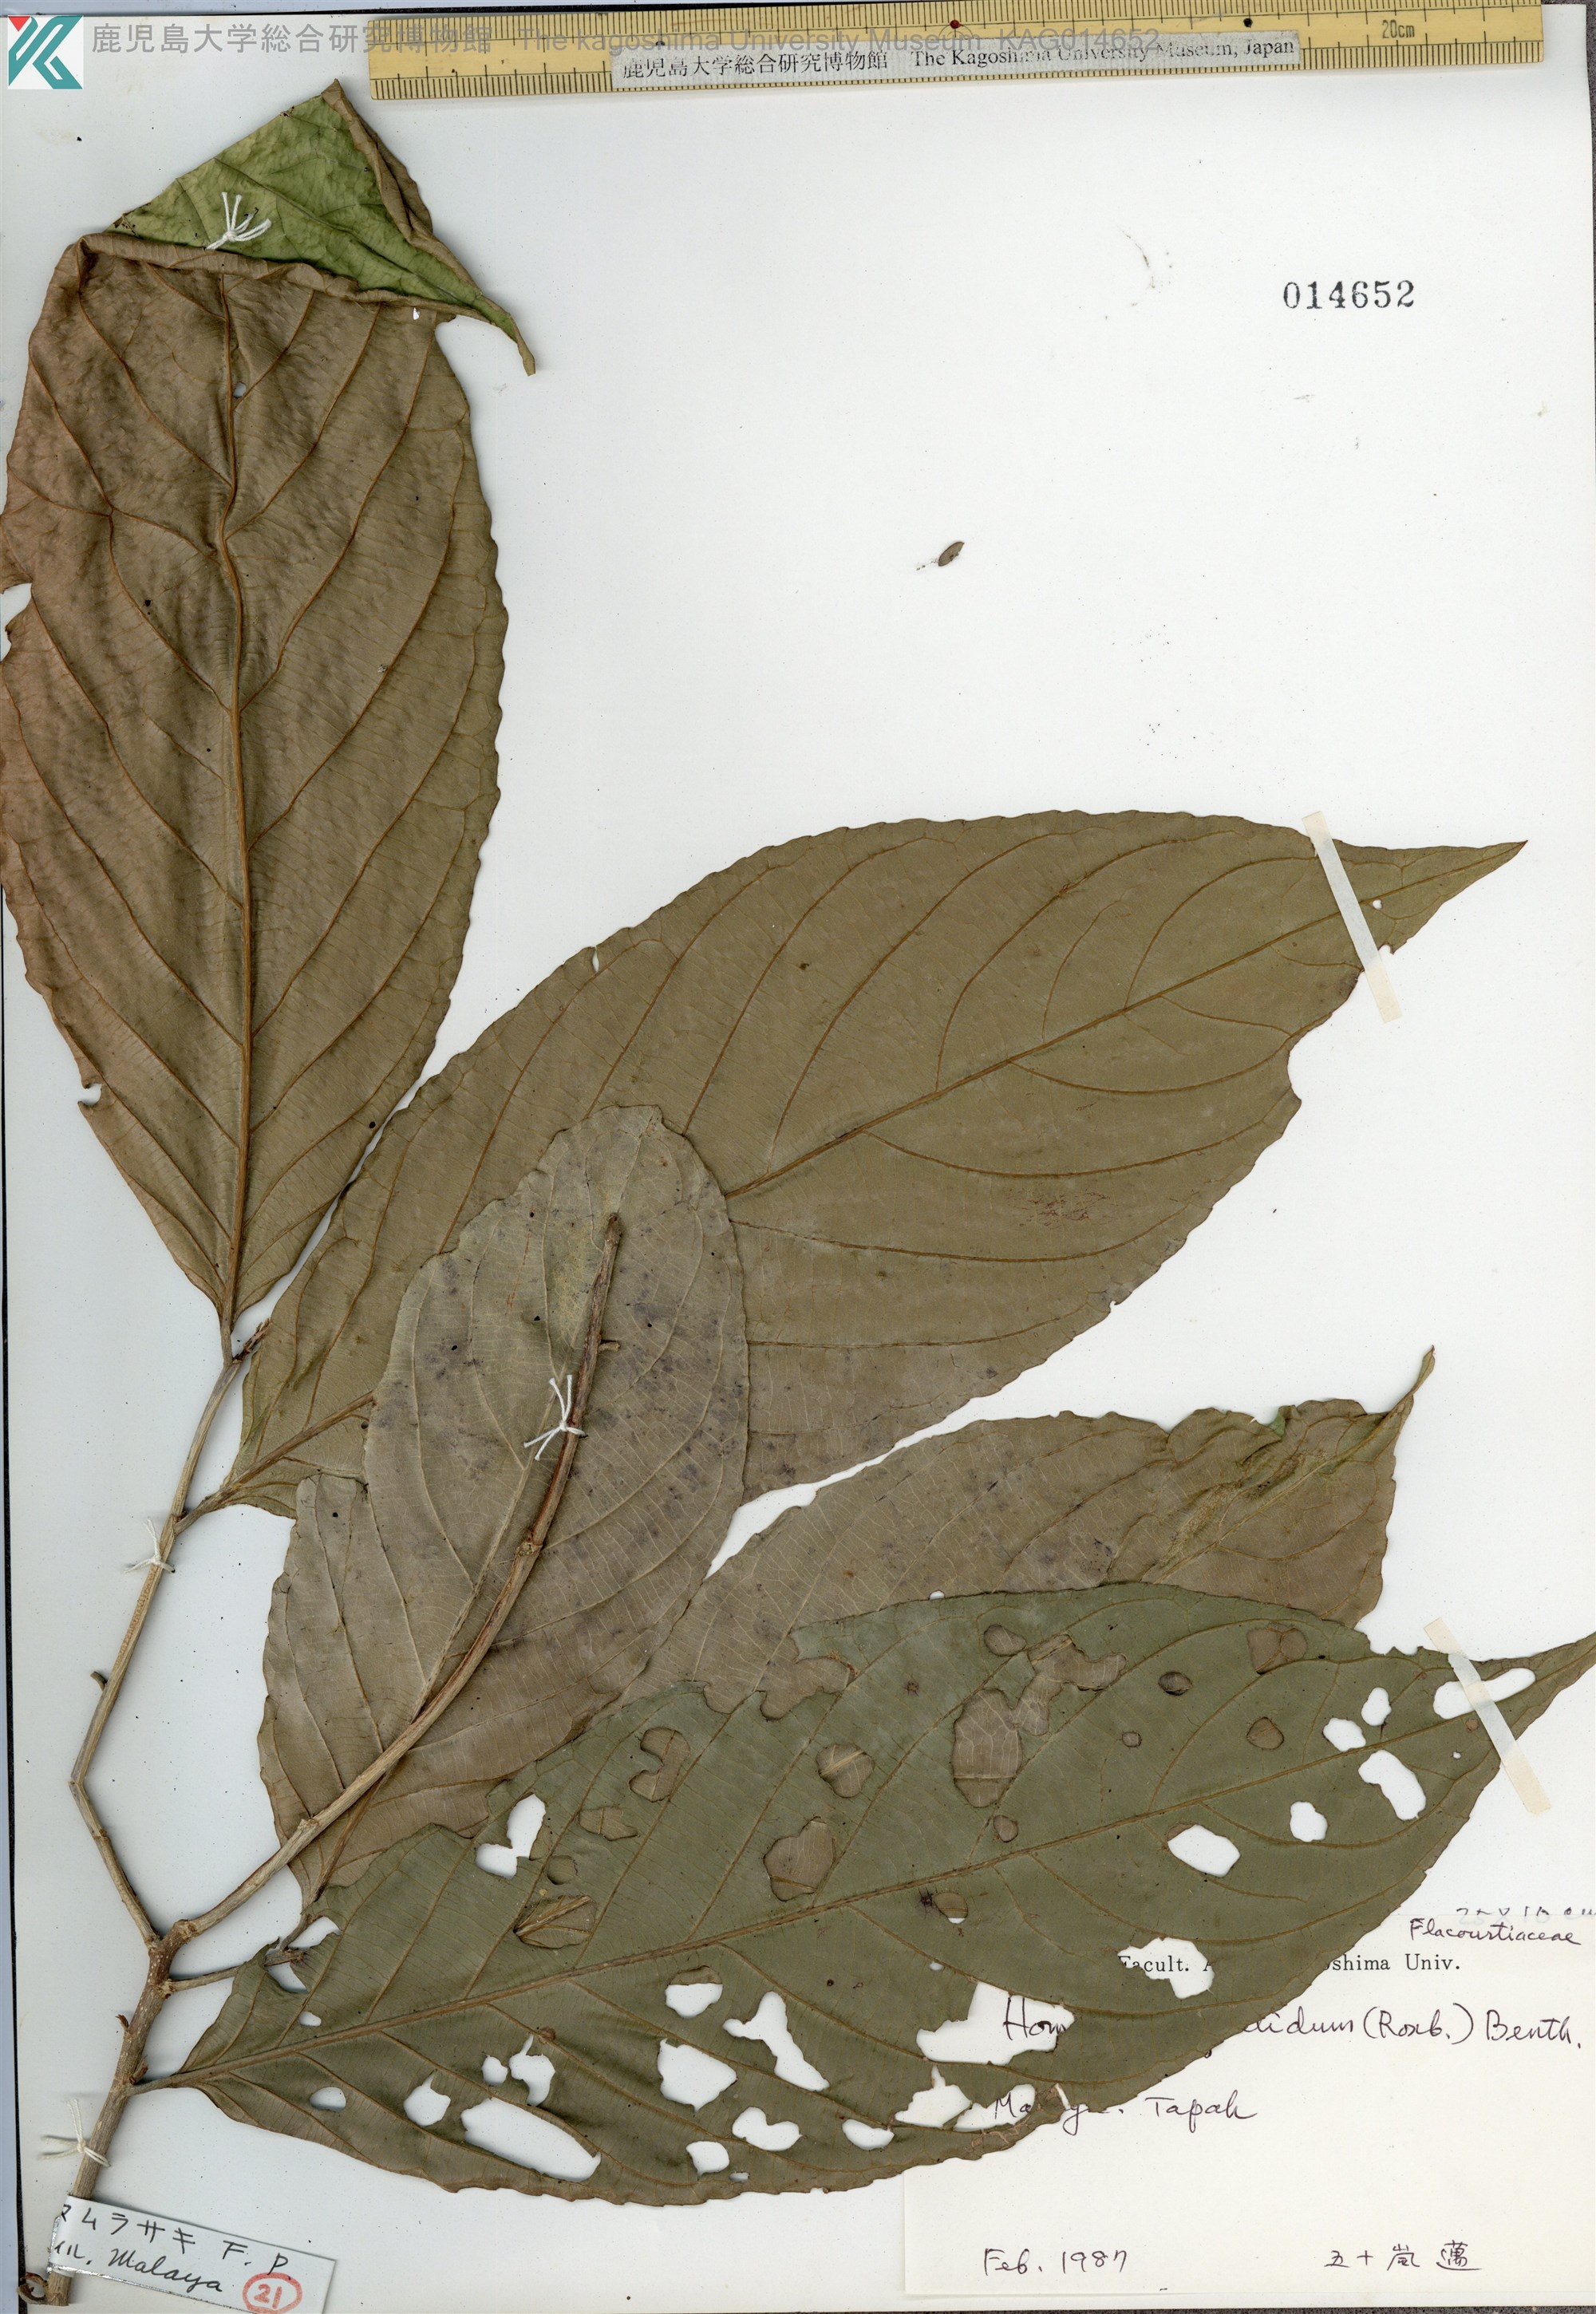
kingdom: Plantae
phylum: Tracheophyta
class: Magnoliopsida
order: Malpighiales
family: Salicaceae
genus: Homalium
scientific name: Homalium foetidum
